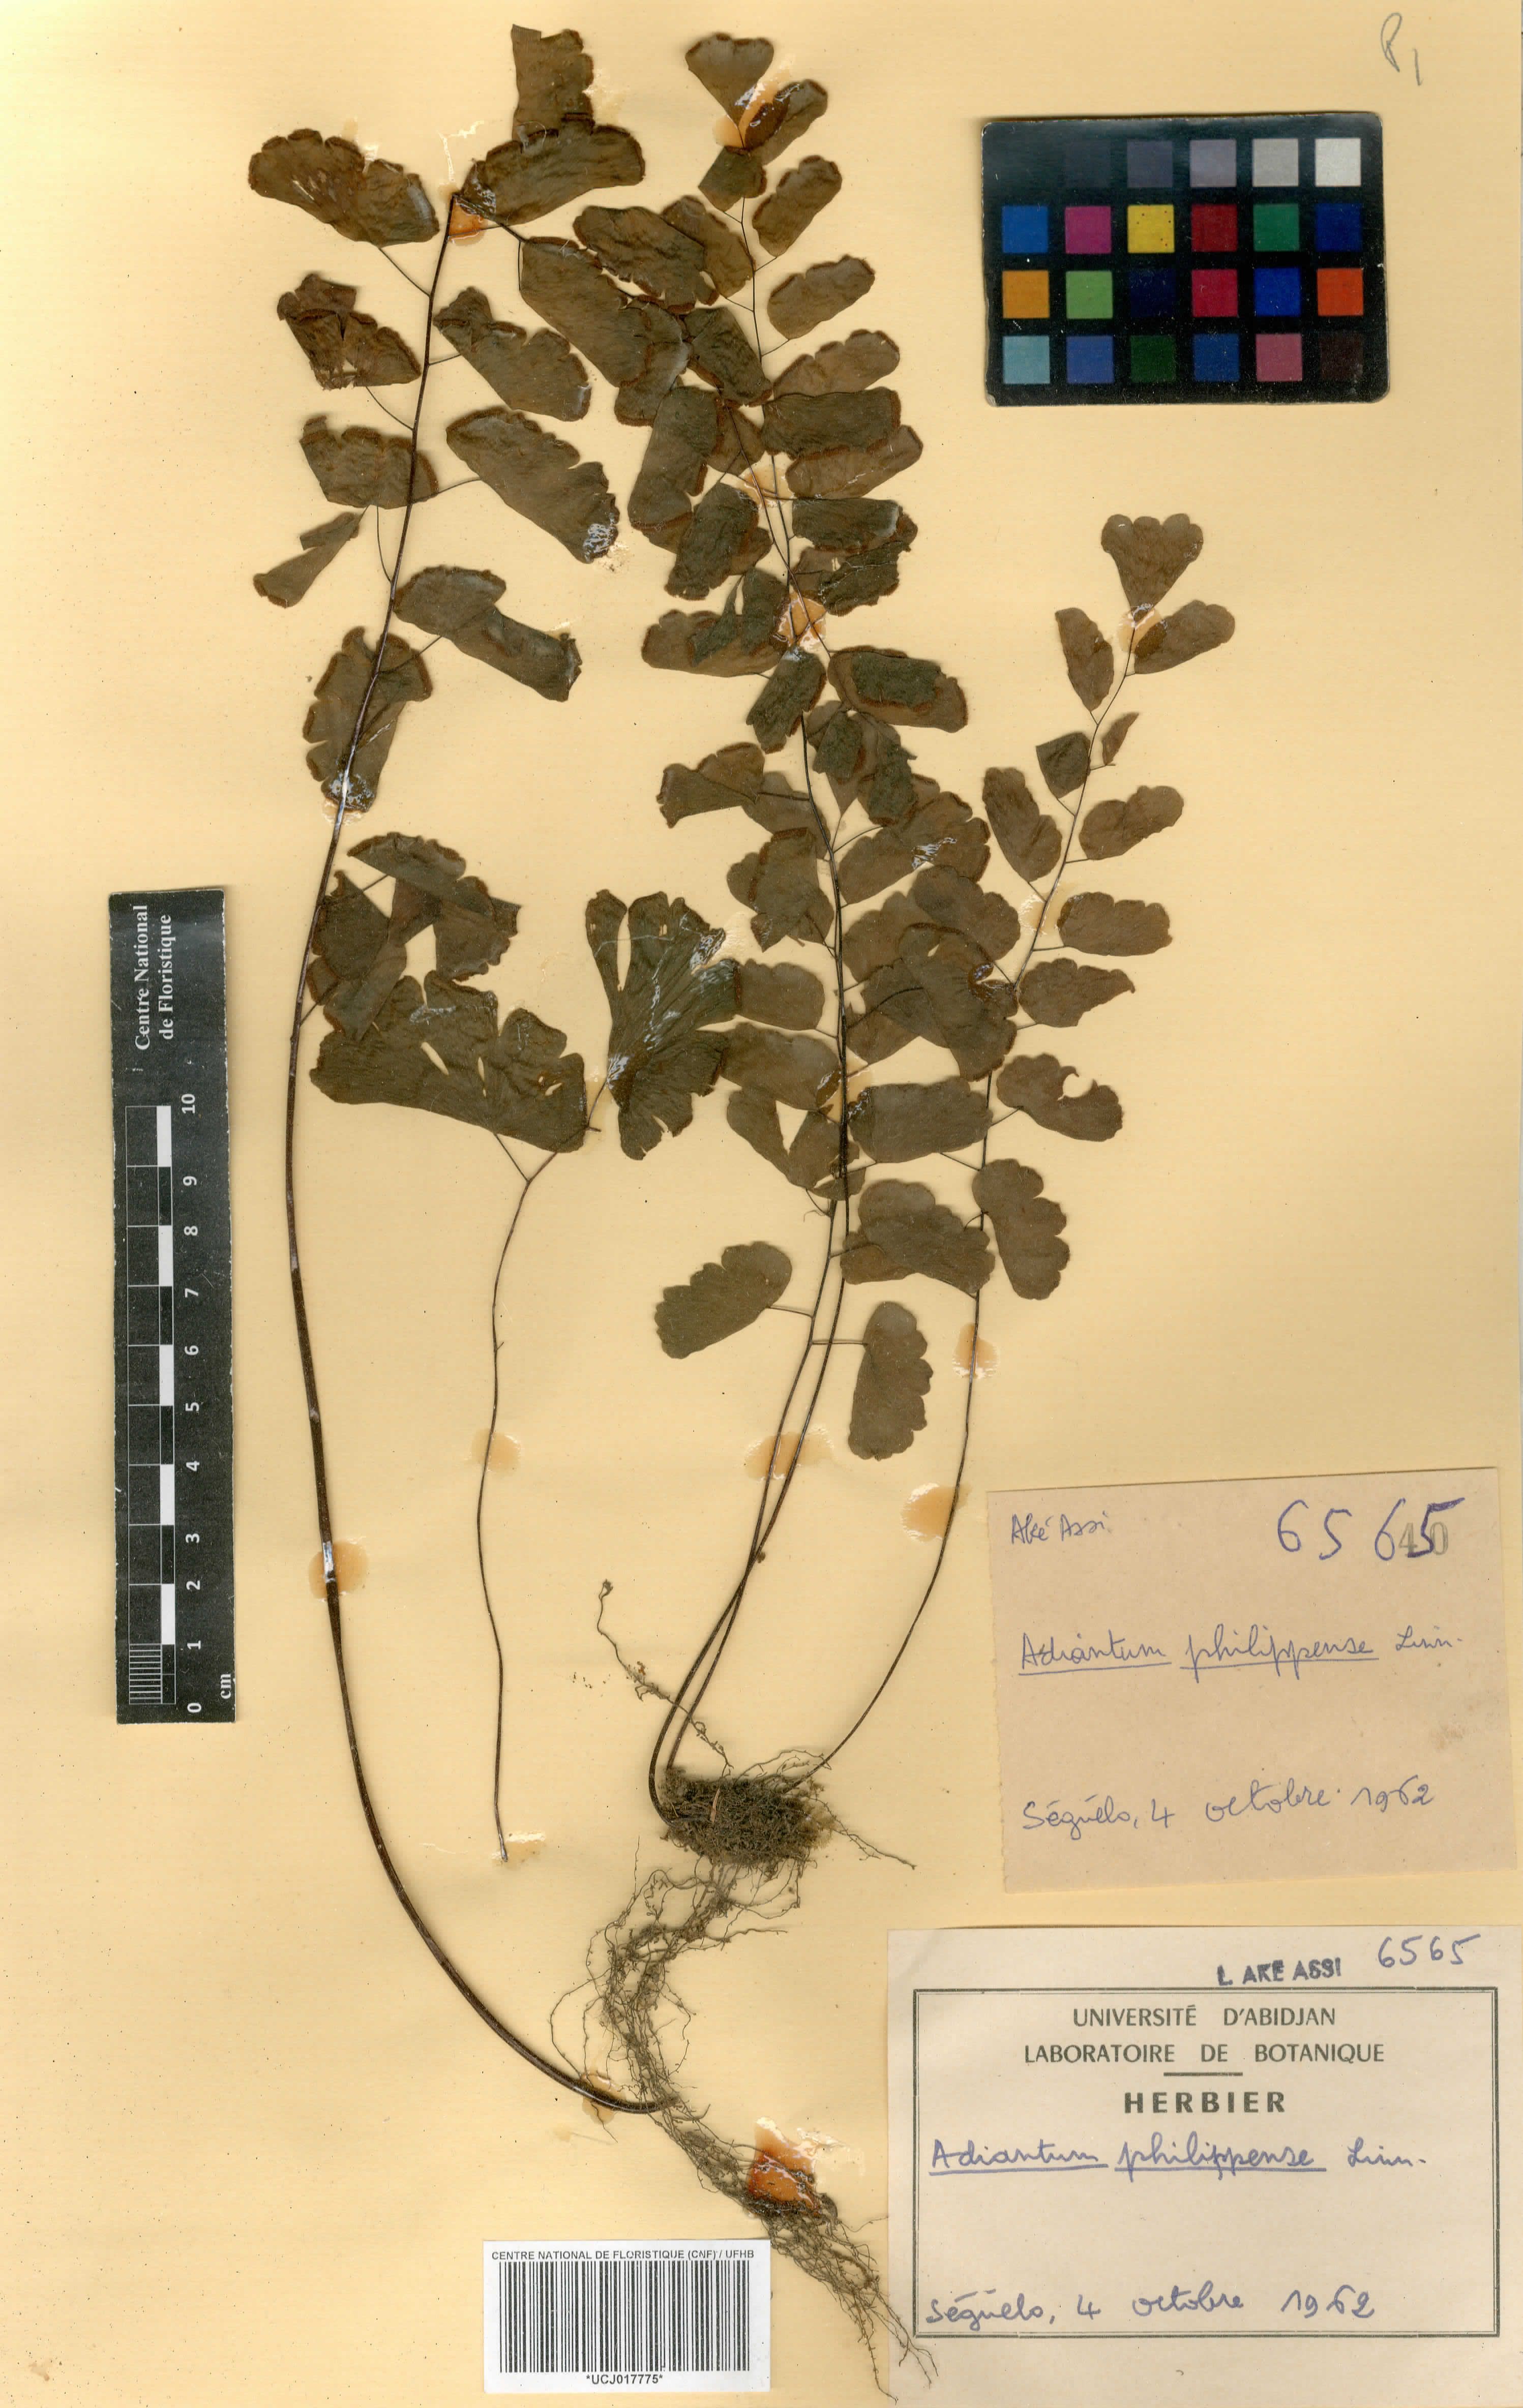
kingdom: Plantae
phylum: Tracheophyta
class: Polypodiopsida
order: Polypodiales
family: Pteridaceae
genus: Adiantum
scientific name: Adiantum philippense
